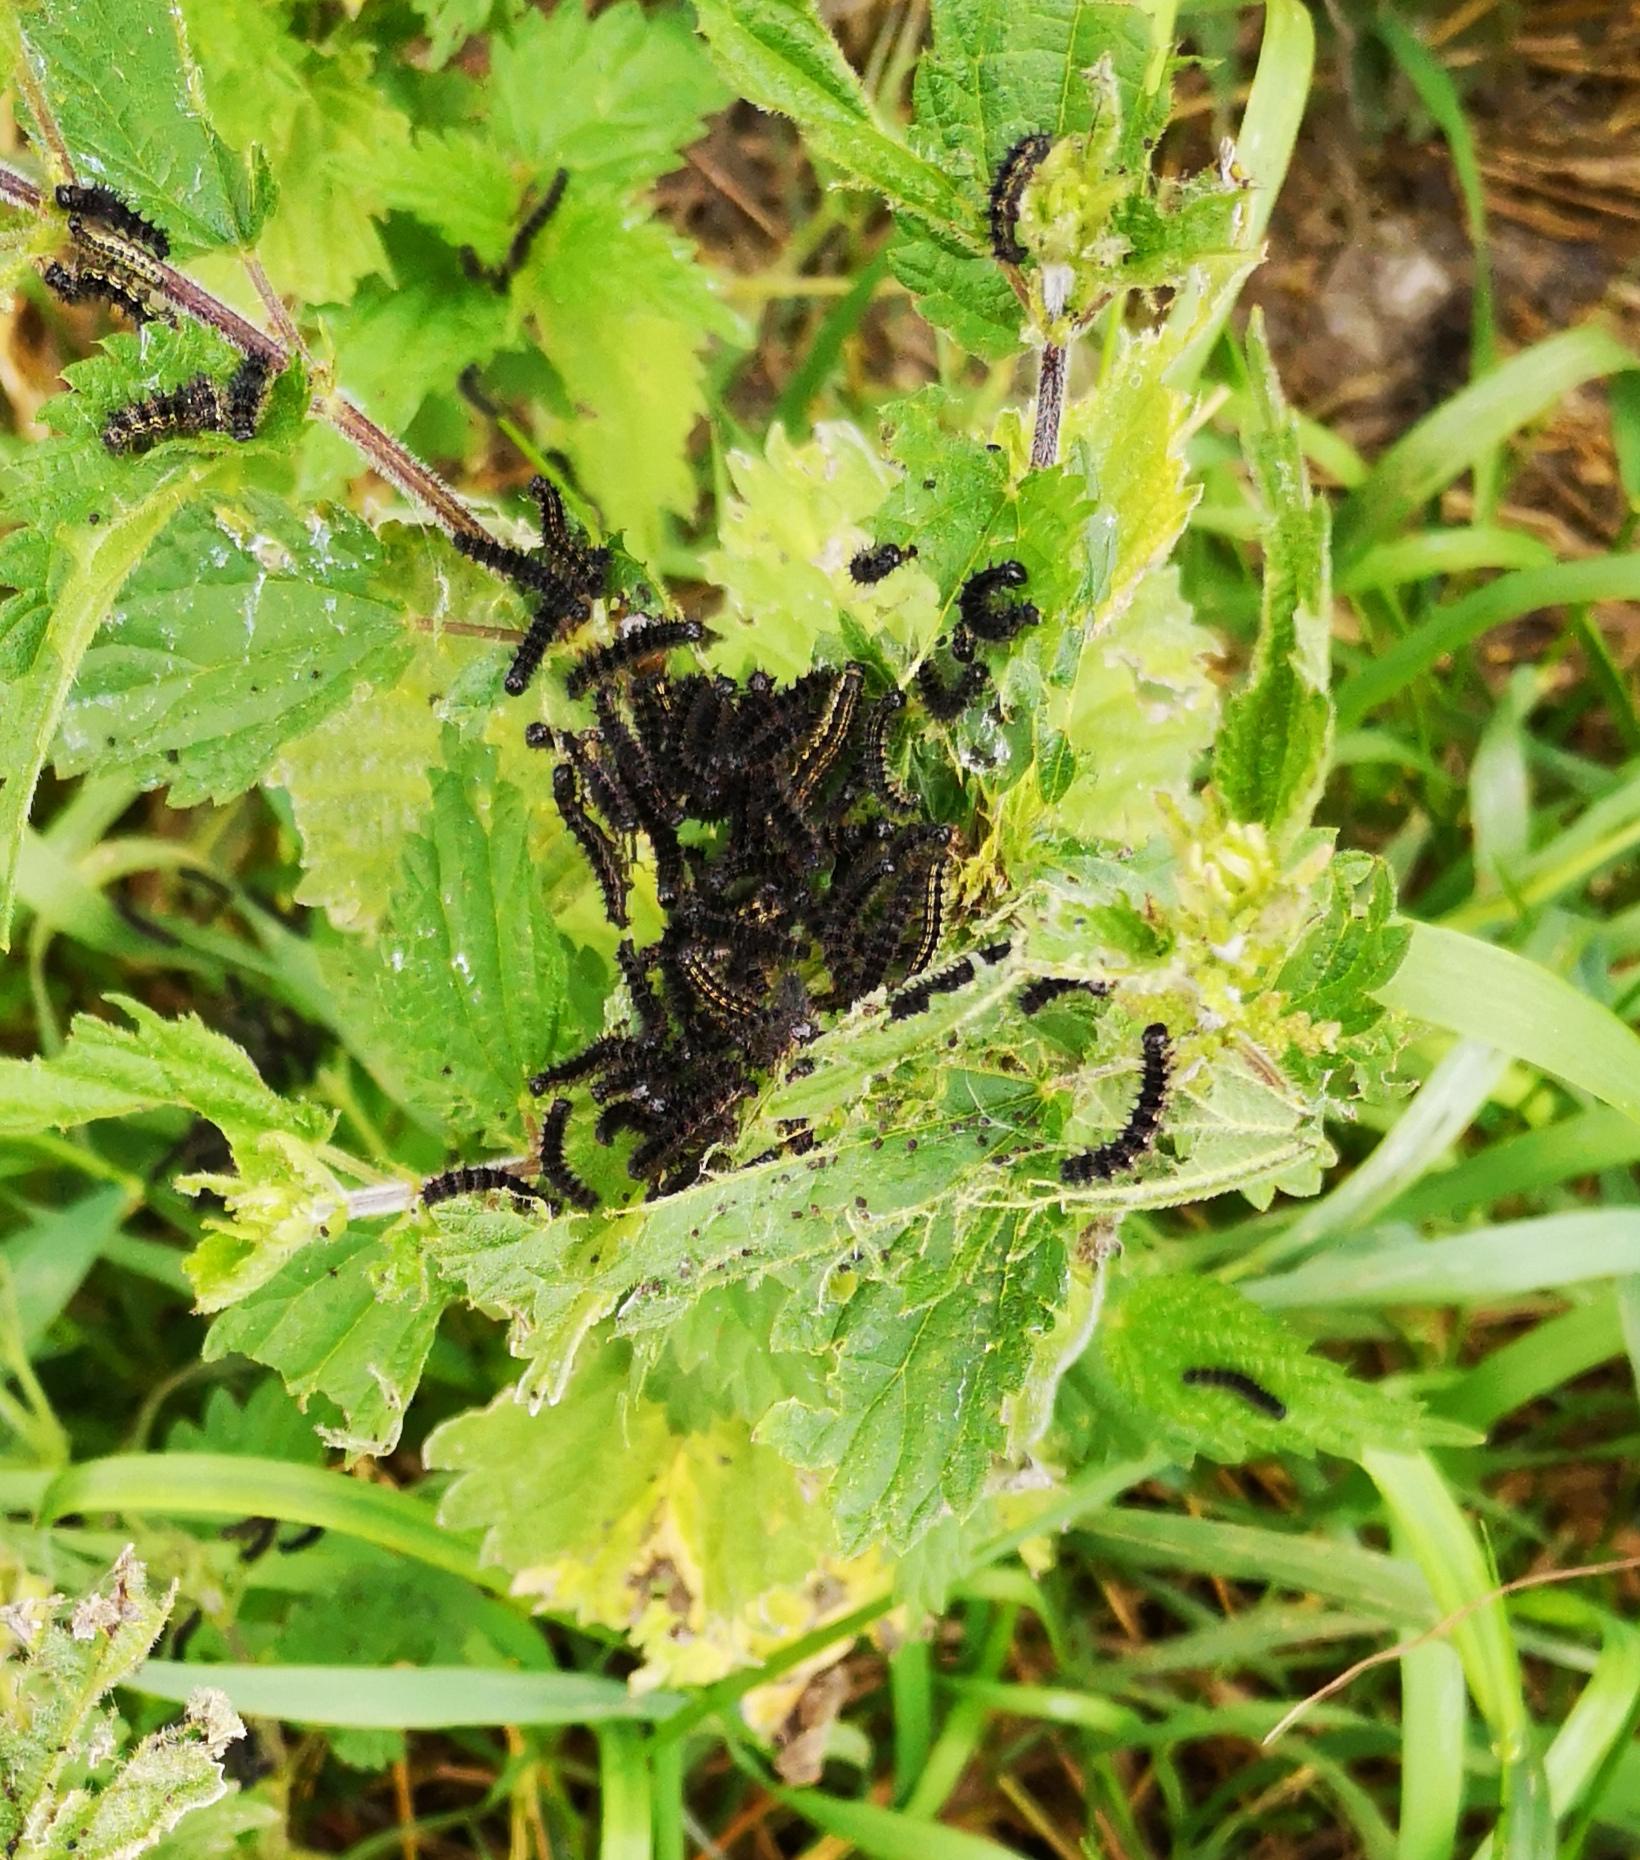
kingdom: Animalia
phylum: Arthropoda
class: Insecta
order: Lepidoptera
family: Nymphalidae
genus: Aglais
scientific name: Aglais urticae
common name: Nældens takvinge
